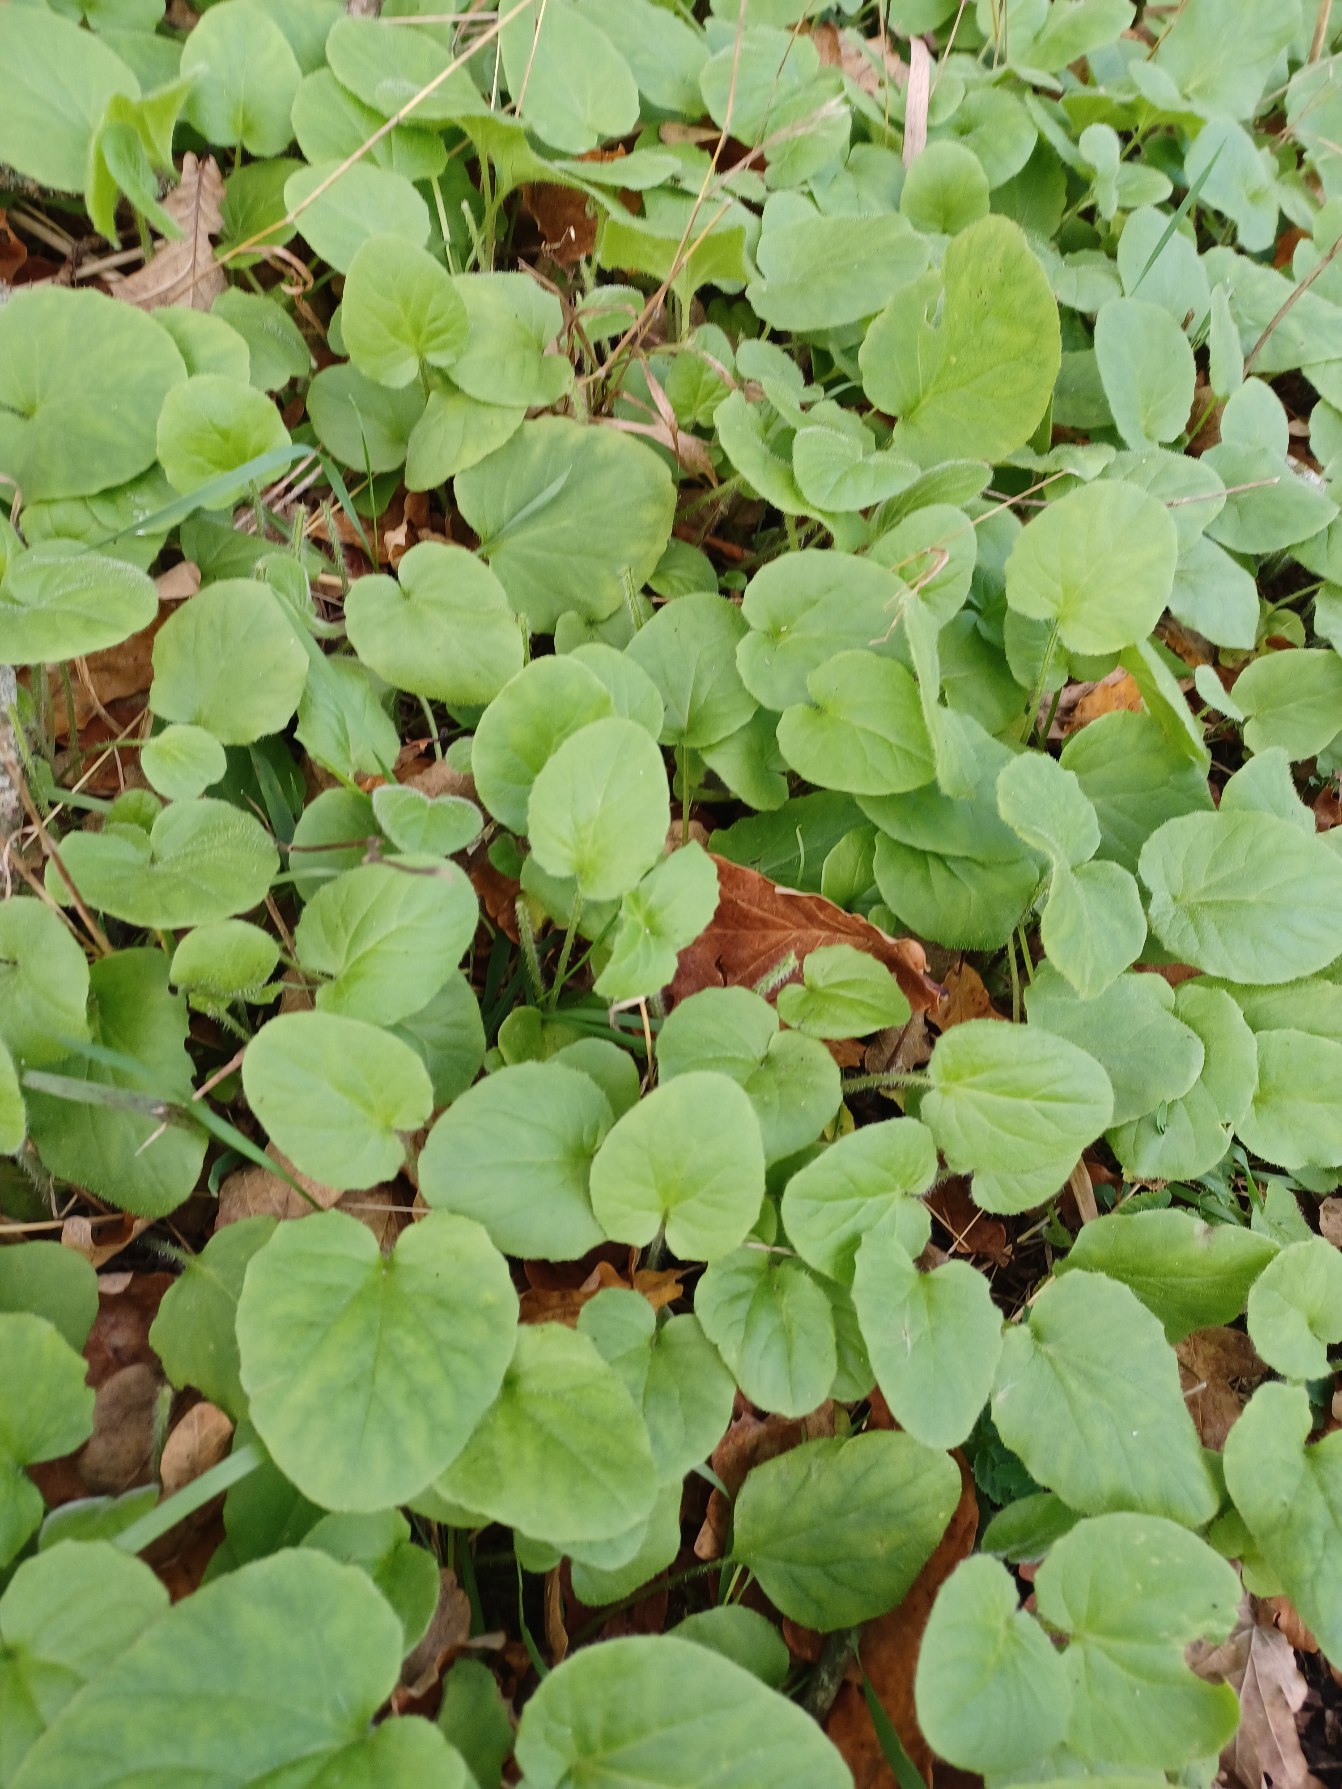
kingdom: Plantae
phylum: Tracheophyta
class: Magnoliopsida
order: Asterales
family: Asteraceae
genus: Doronicum
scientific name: Doronicum pardalianches
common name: Hjertebladet gemserod
